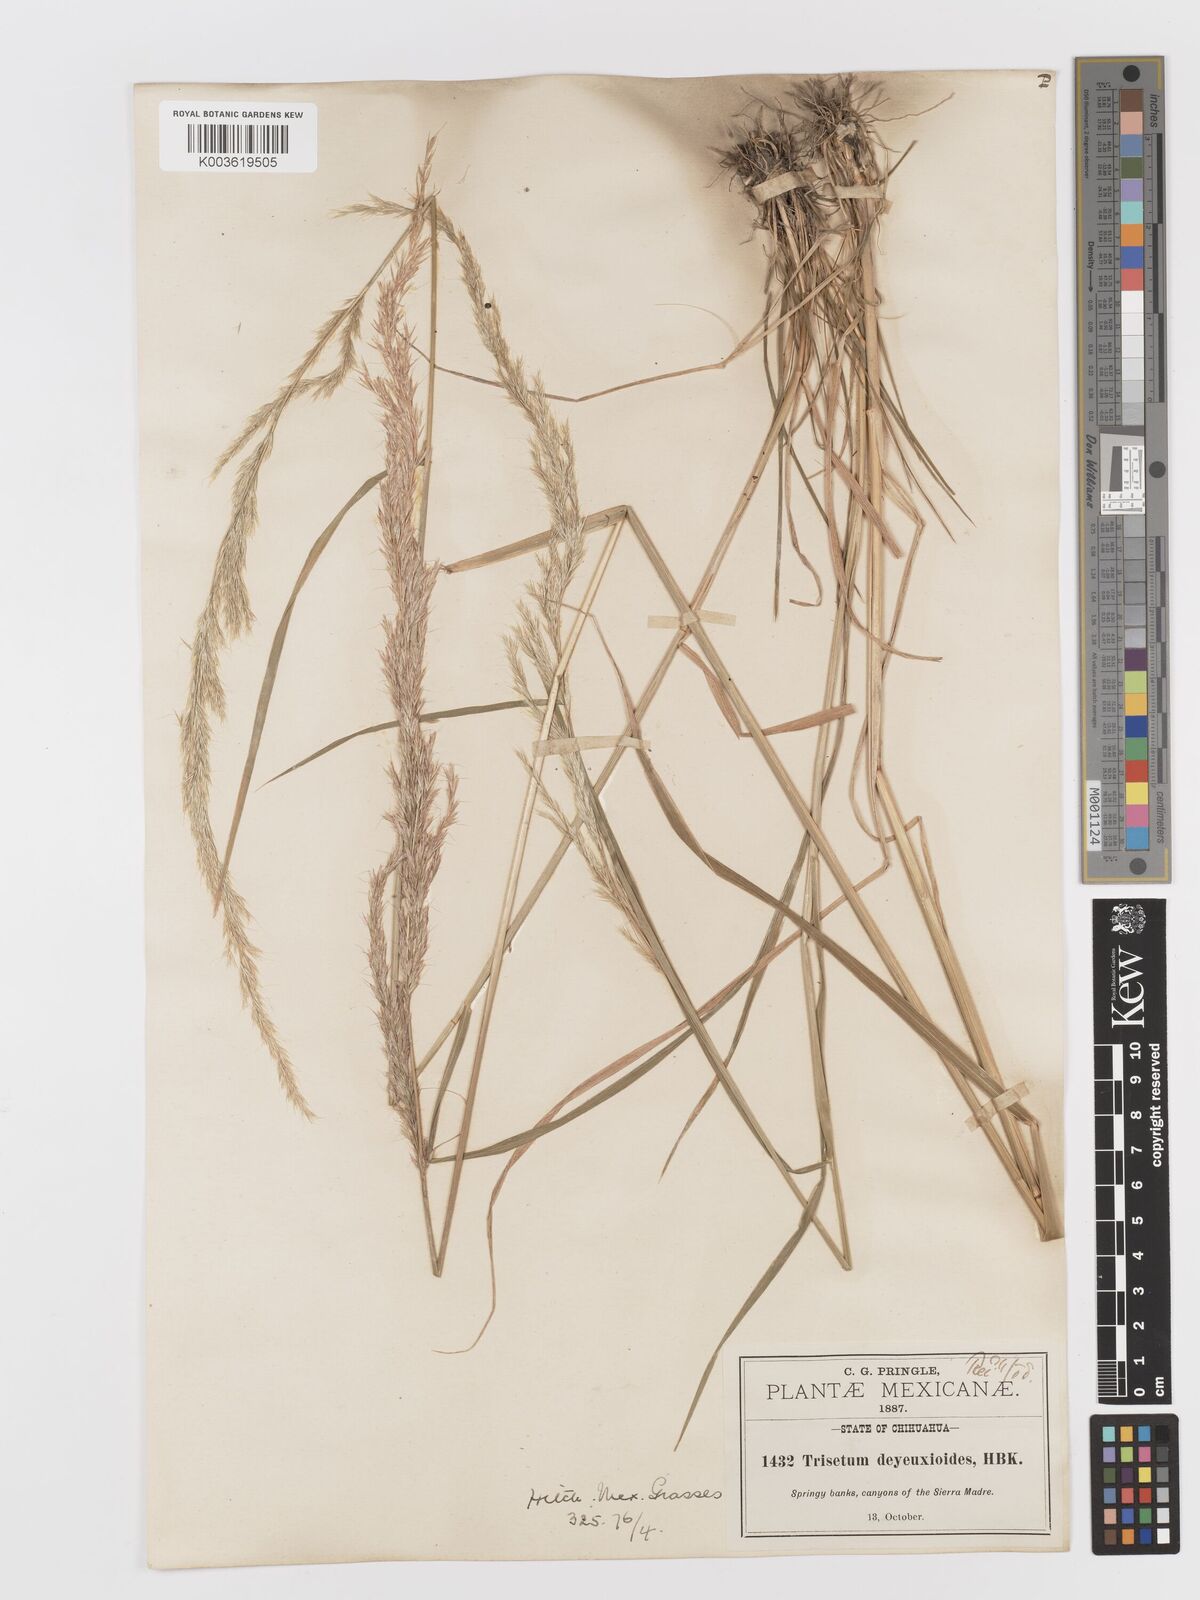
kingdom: Plantae
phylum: Tracheophyta
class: Liliopsida
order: Poales
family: Poaceae
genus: Peyritschia
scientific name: Peyritschia deyeuxioides
